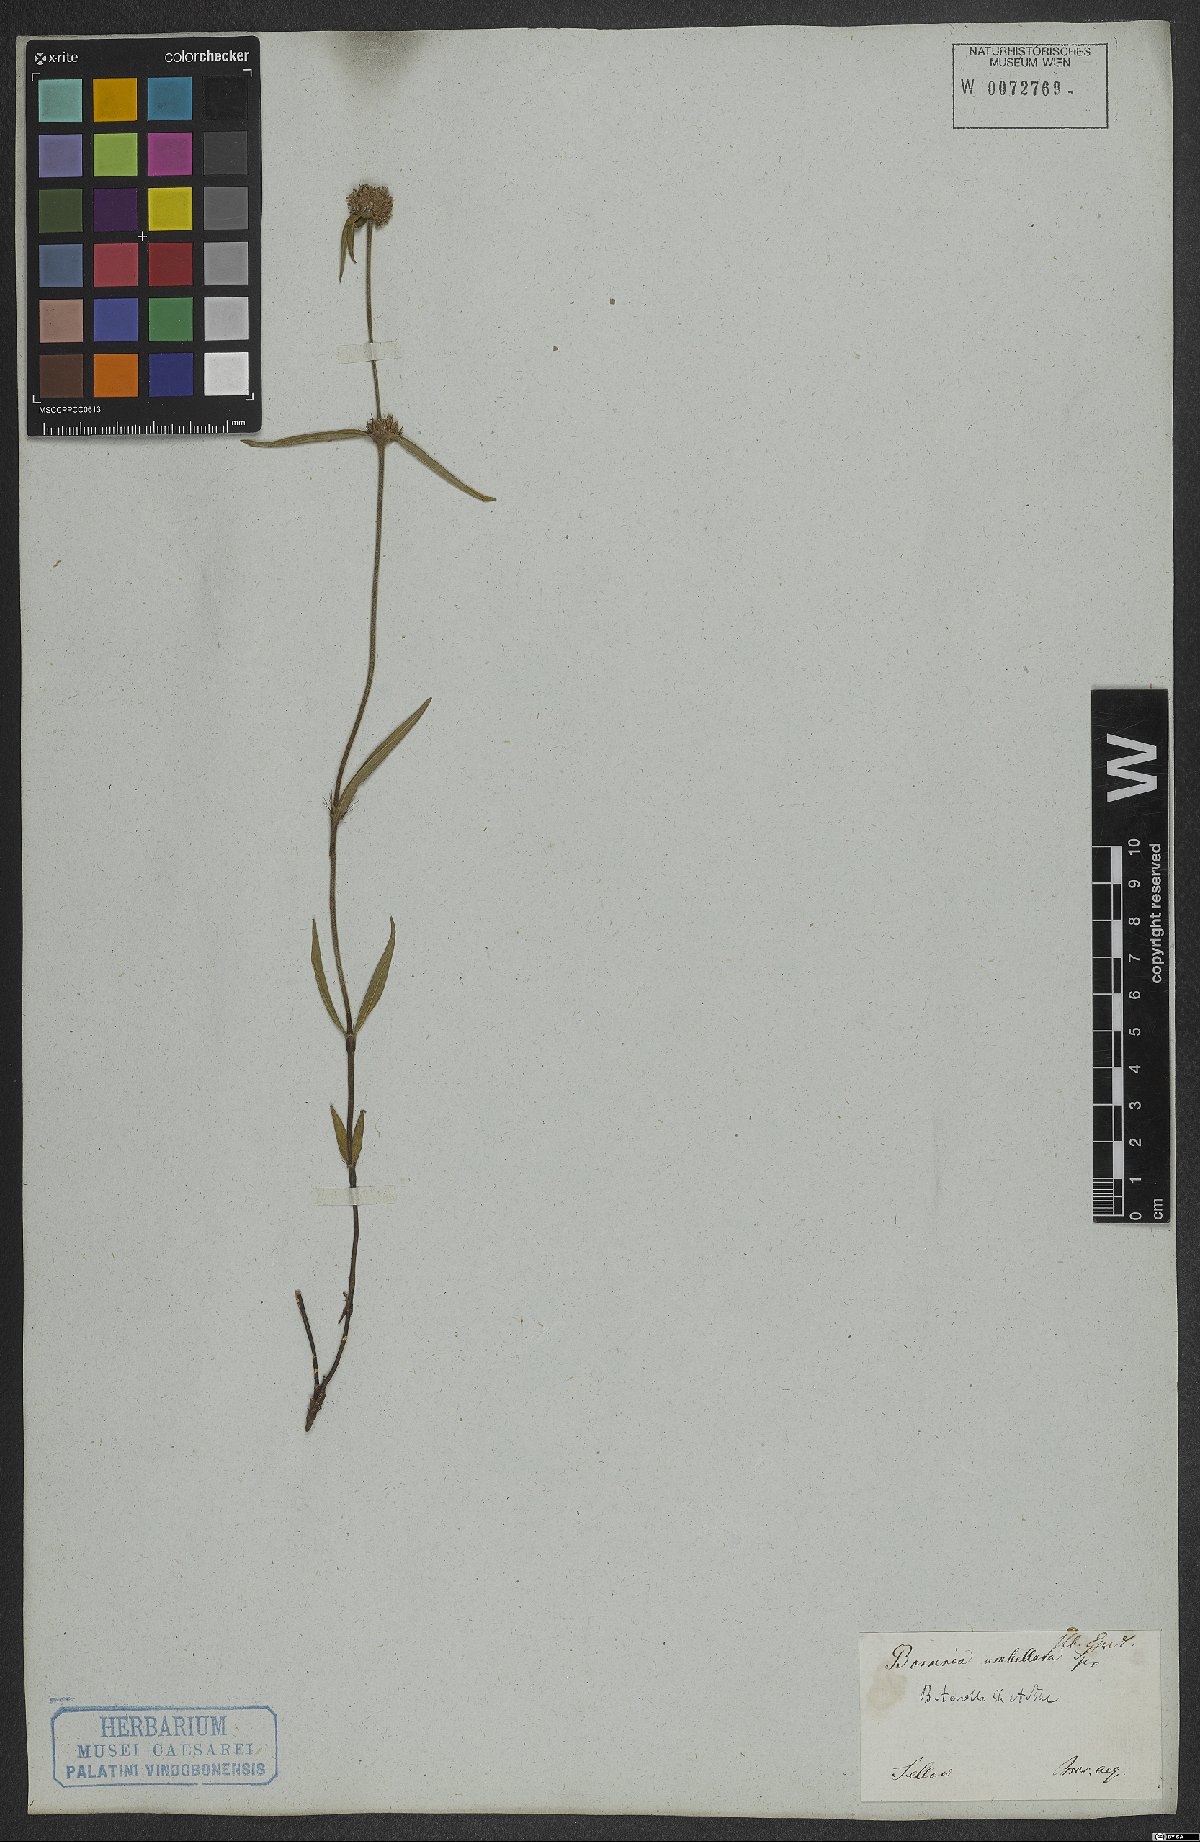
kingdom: Plantae
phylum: Tracheophyta
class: Magnoliopsida
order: Gentianales
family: Rubiaceae
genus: Spermacoce
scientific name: Spermacoce orinocensis
